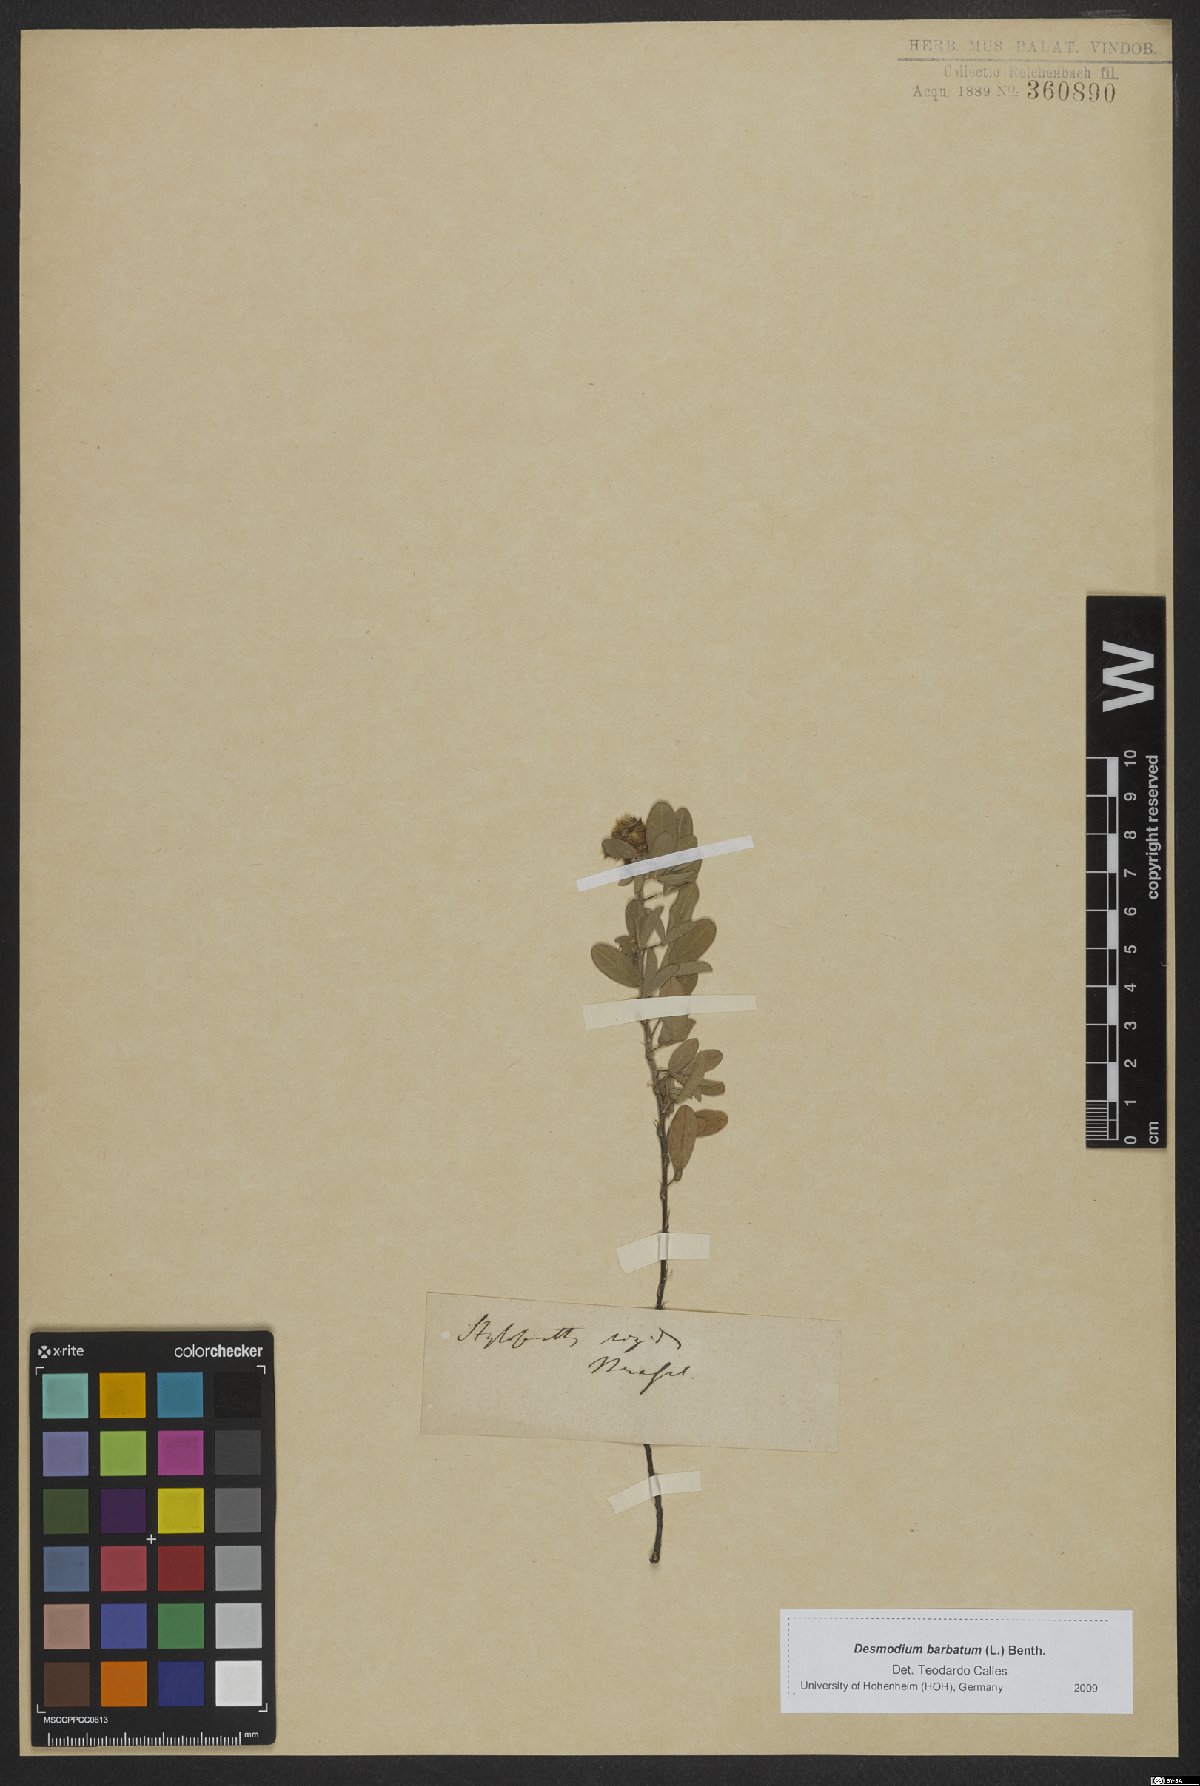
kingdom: Plantae
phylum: Tracheophyta
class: Magnoliopsida
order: Fabales
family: Fabaceae
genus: Grona
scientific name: Grona barbata
